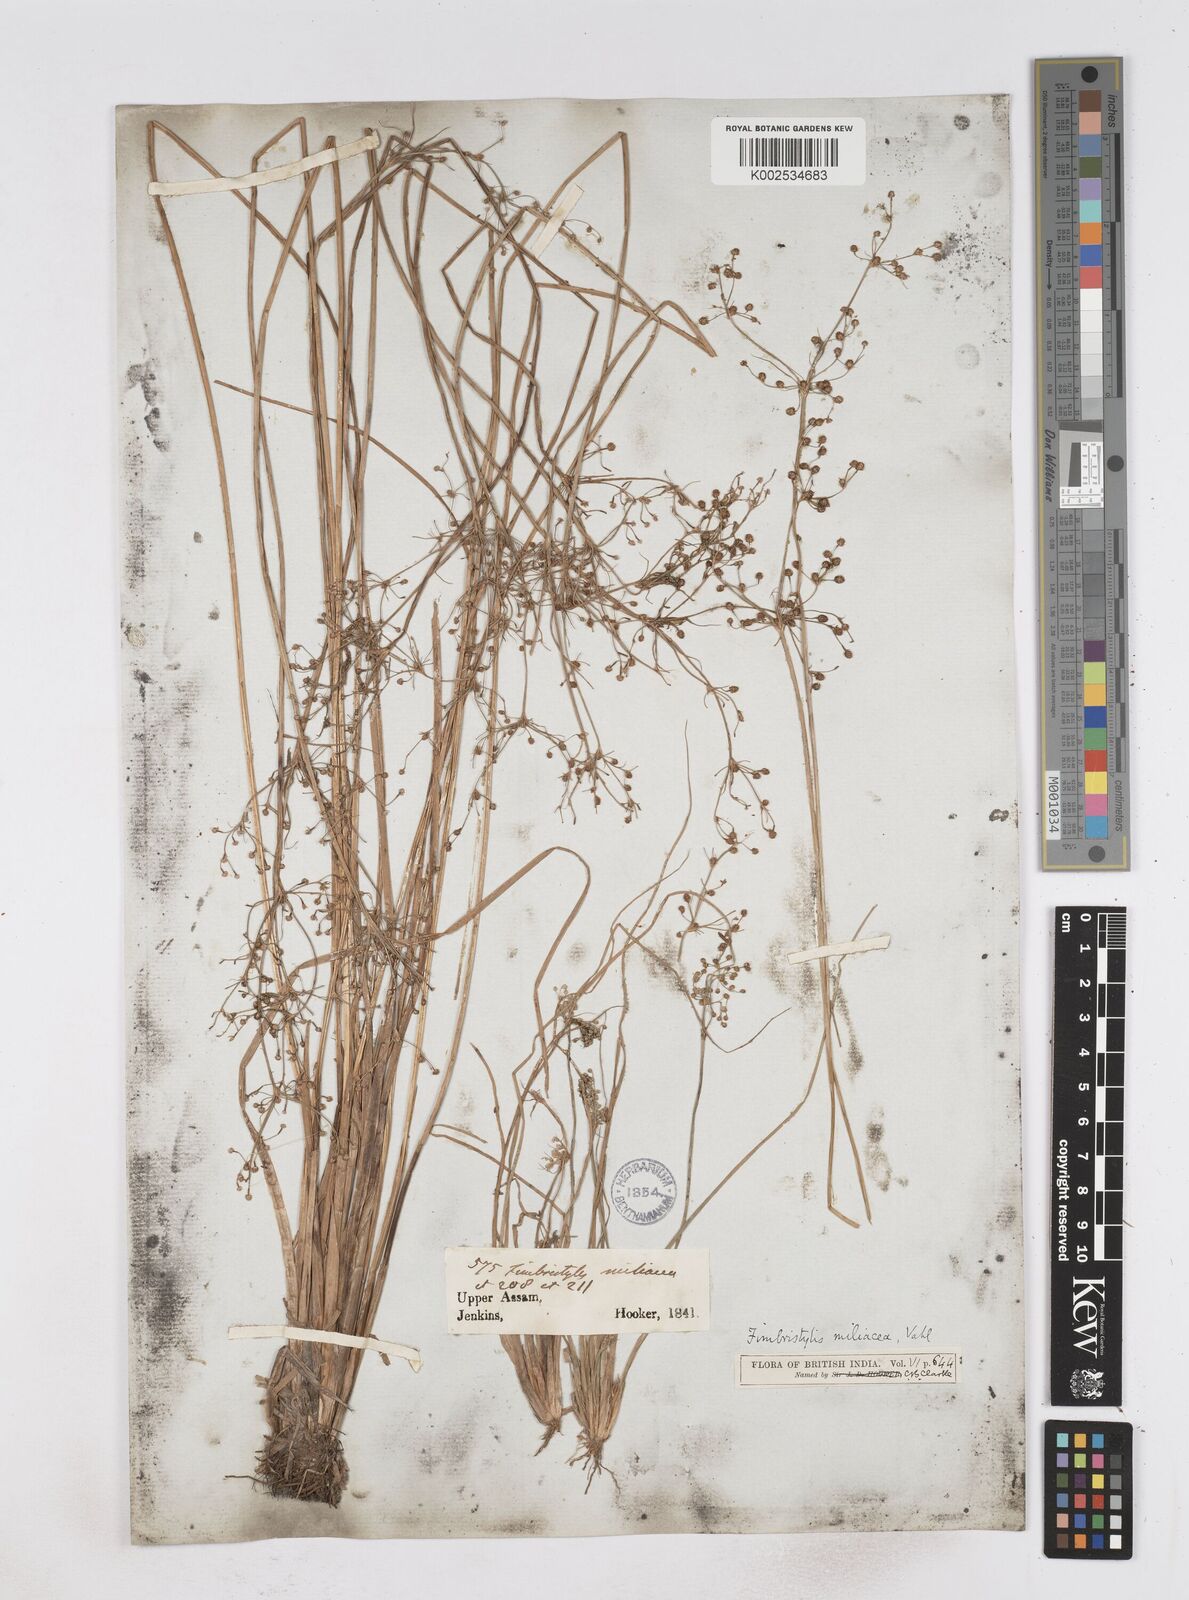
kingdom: Plantae
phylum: Tracheophyta
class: Liliopsida
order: Poales
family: Cyperaceae
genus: Fimbristylis
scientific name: Fimbristylis littoralis
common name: Fimbry
